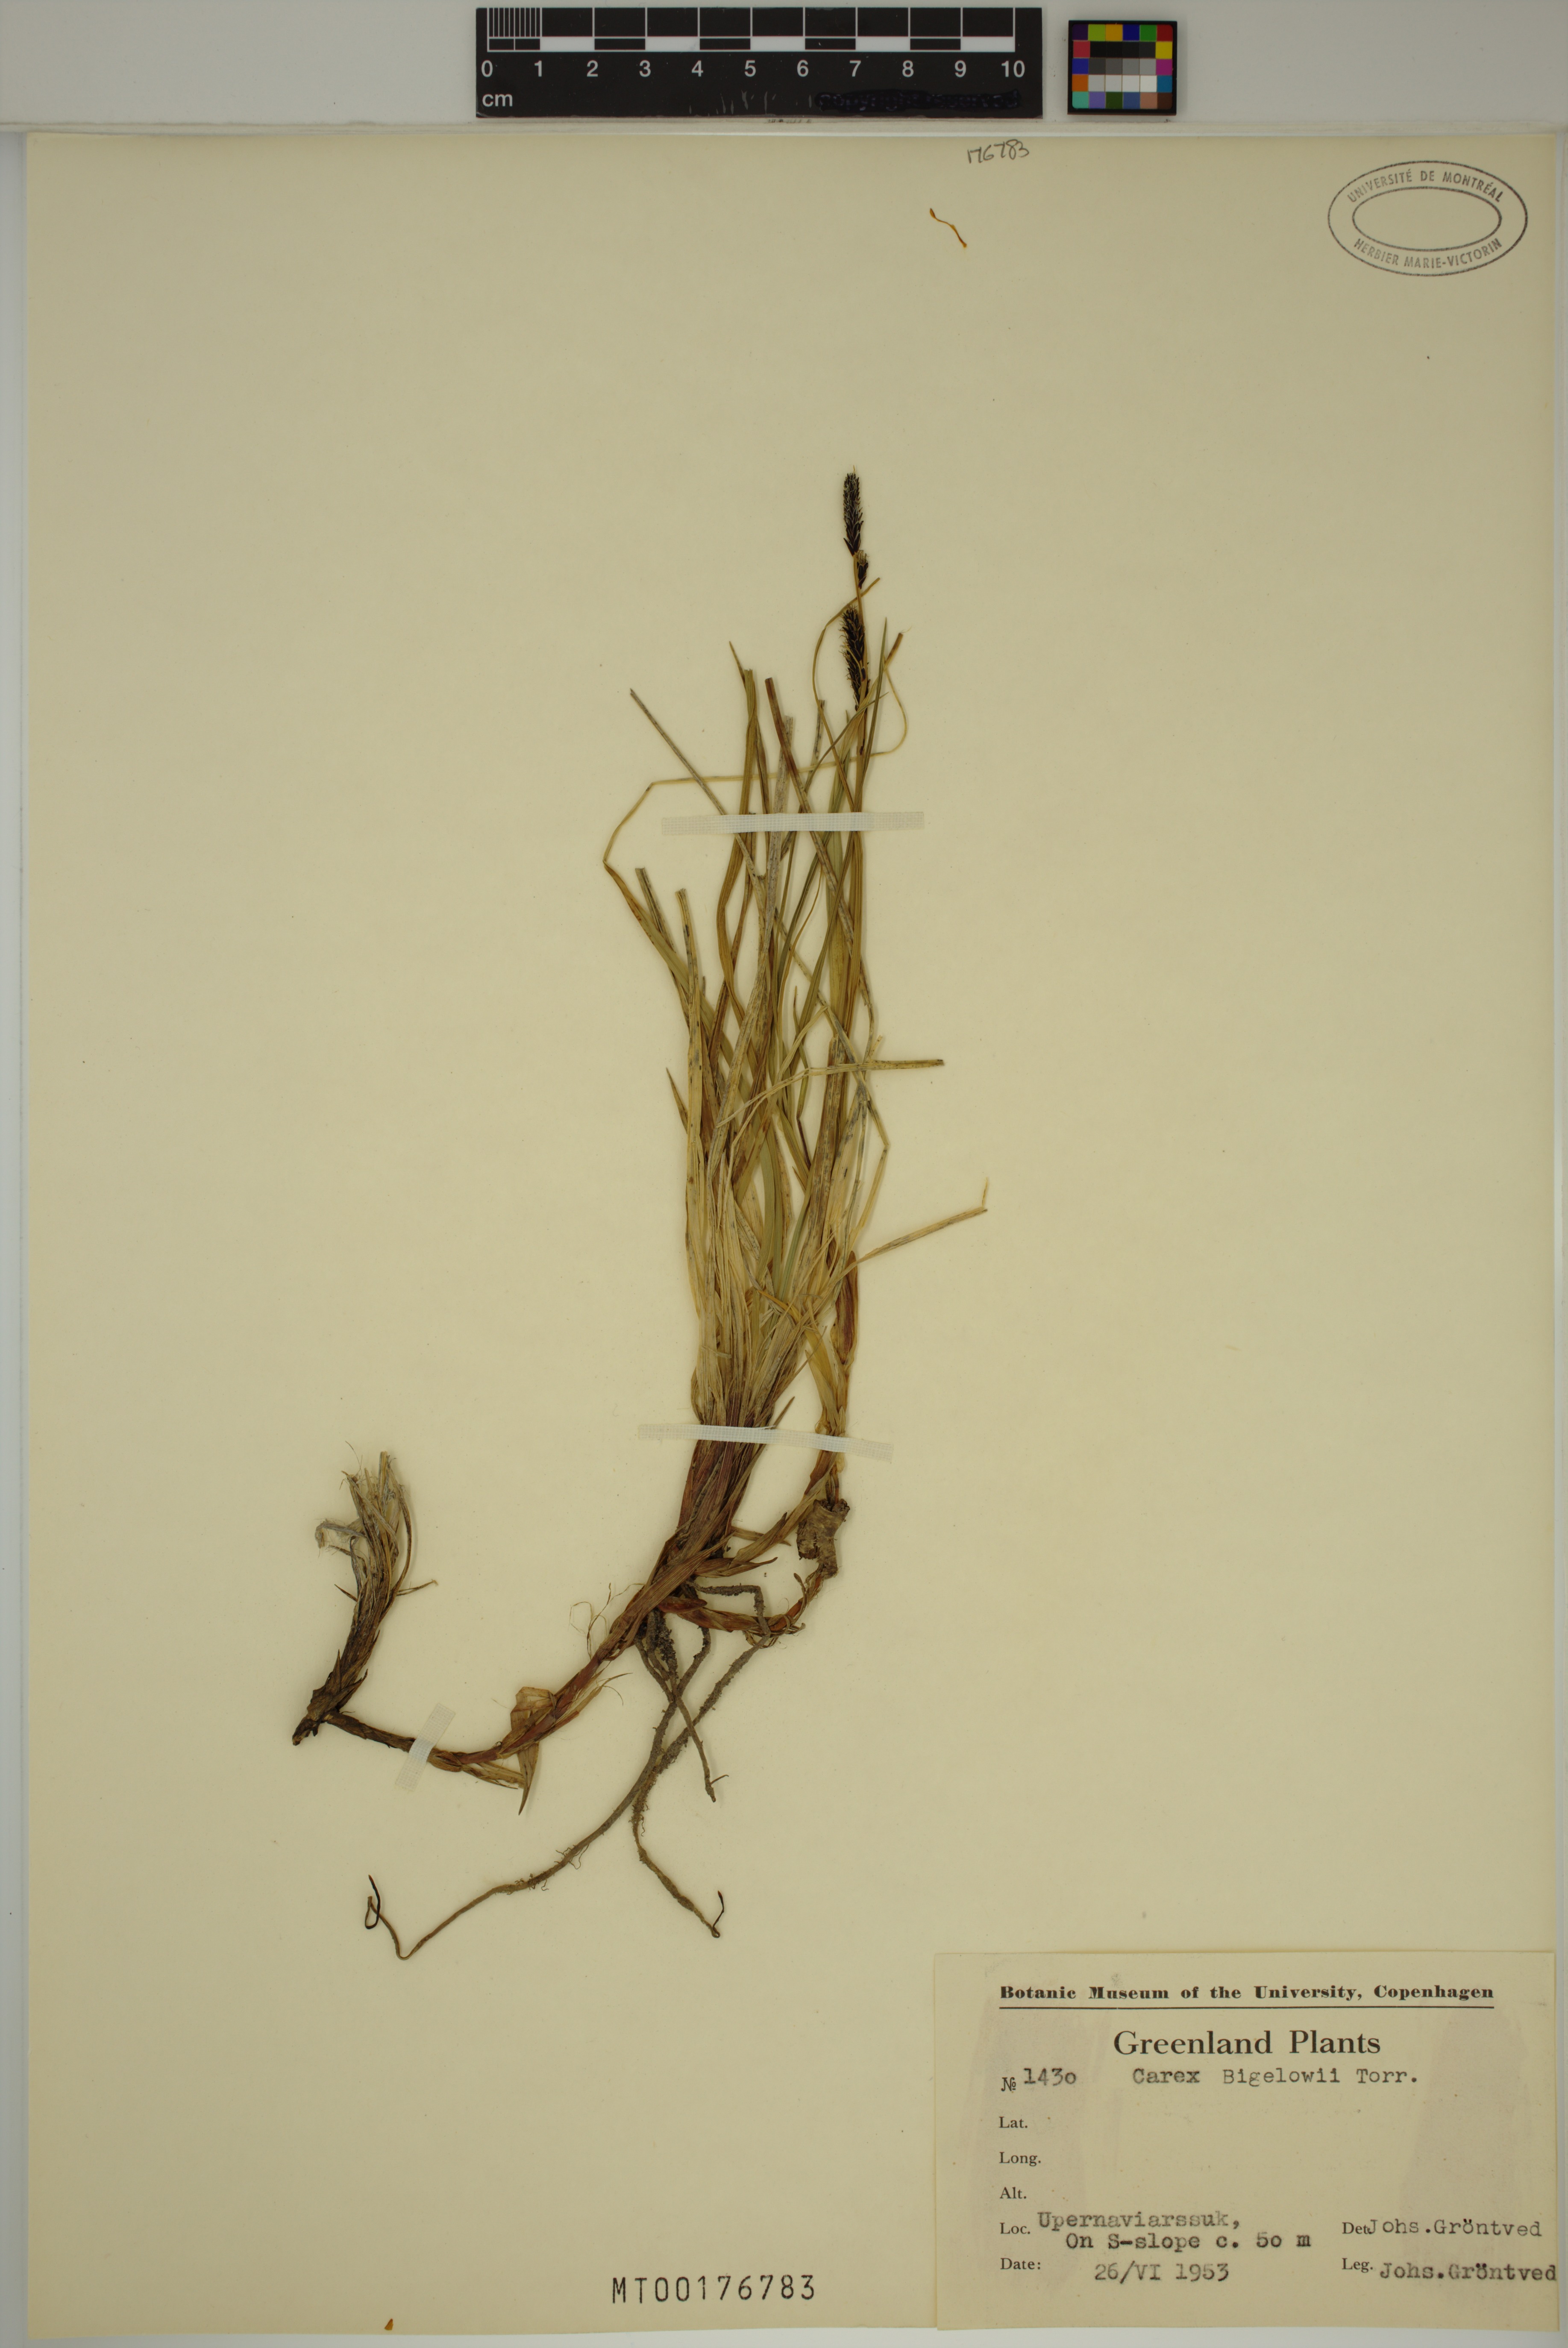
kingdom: Plantae
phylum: Tracheophyta
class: Liliopsida
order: Poales
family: Cyperaceae
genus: Carex
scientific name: Carex bigelowii
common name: Stiff sedge
